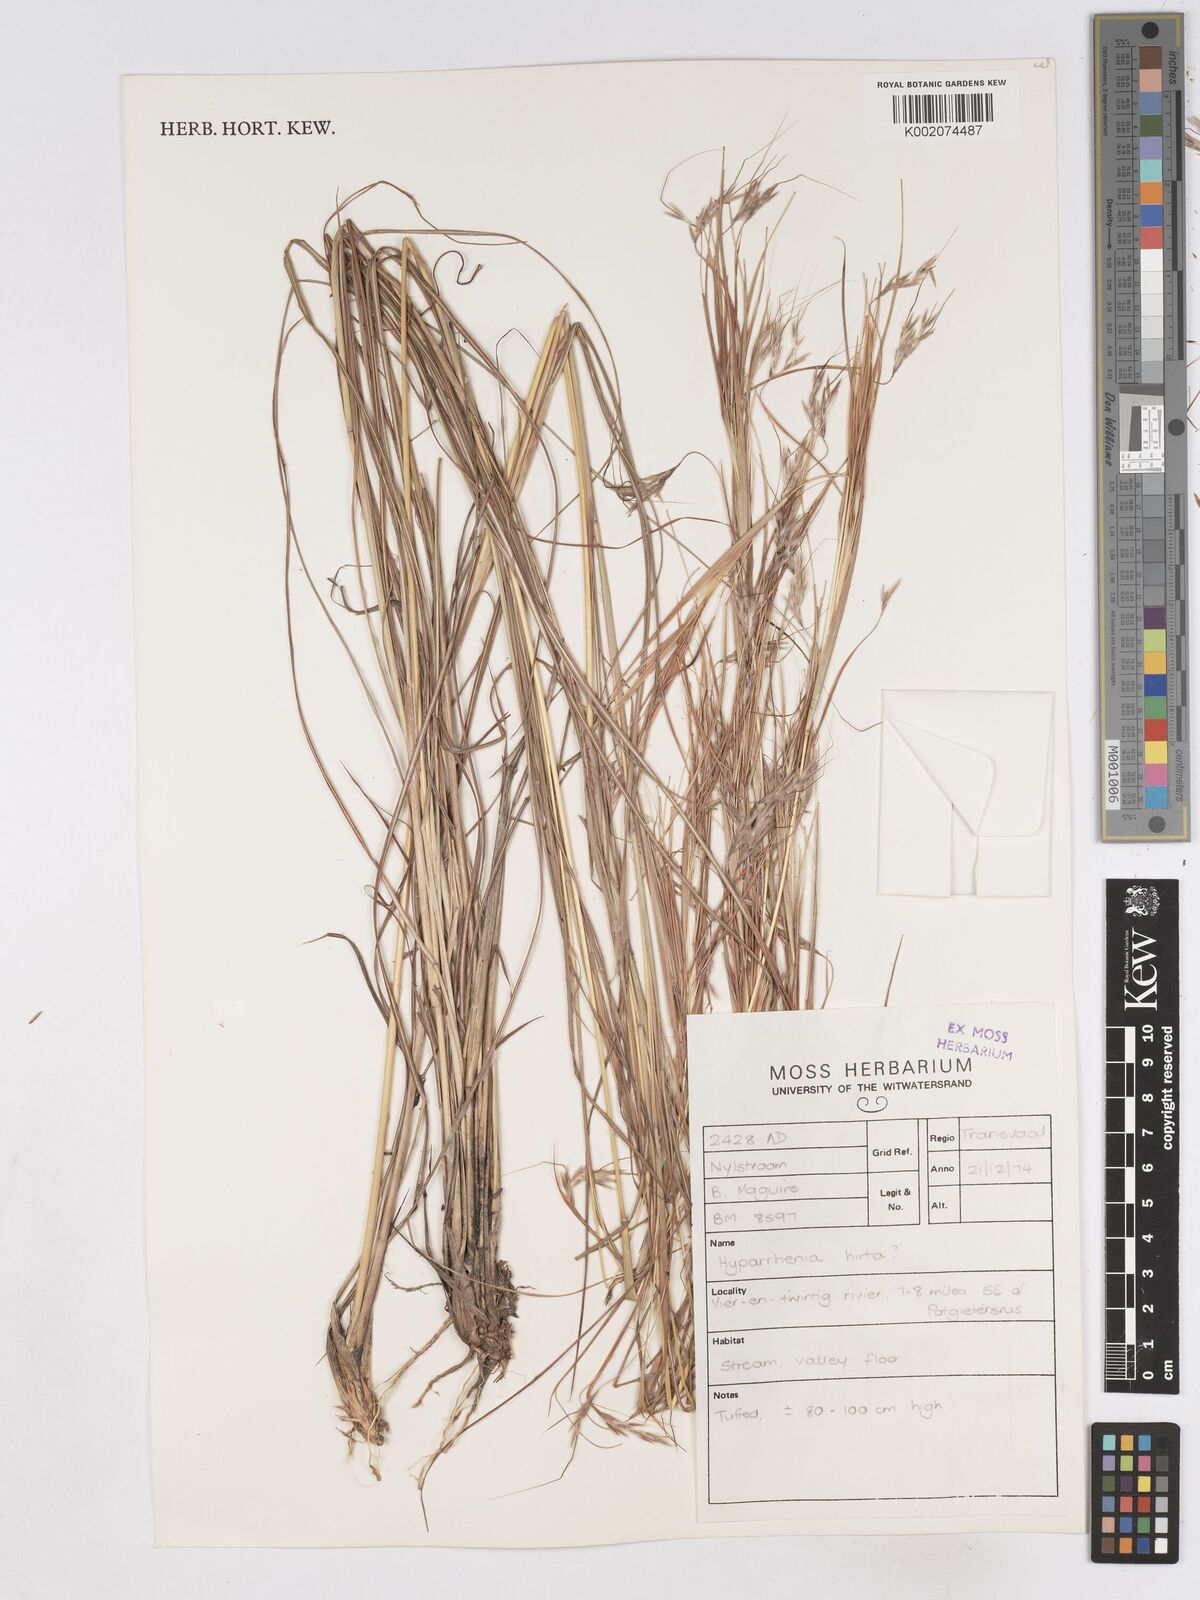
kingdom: Plantae
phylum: Tracheophyta
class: Liliopsida
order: Poales
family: Poaceae
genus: Hyparrhenia
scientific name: Hyparrhenia hirta
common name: Thatching grass
